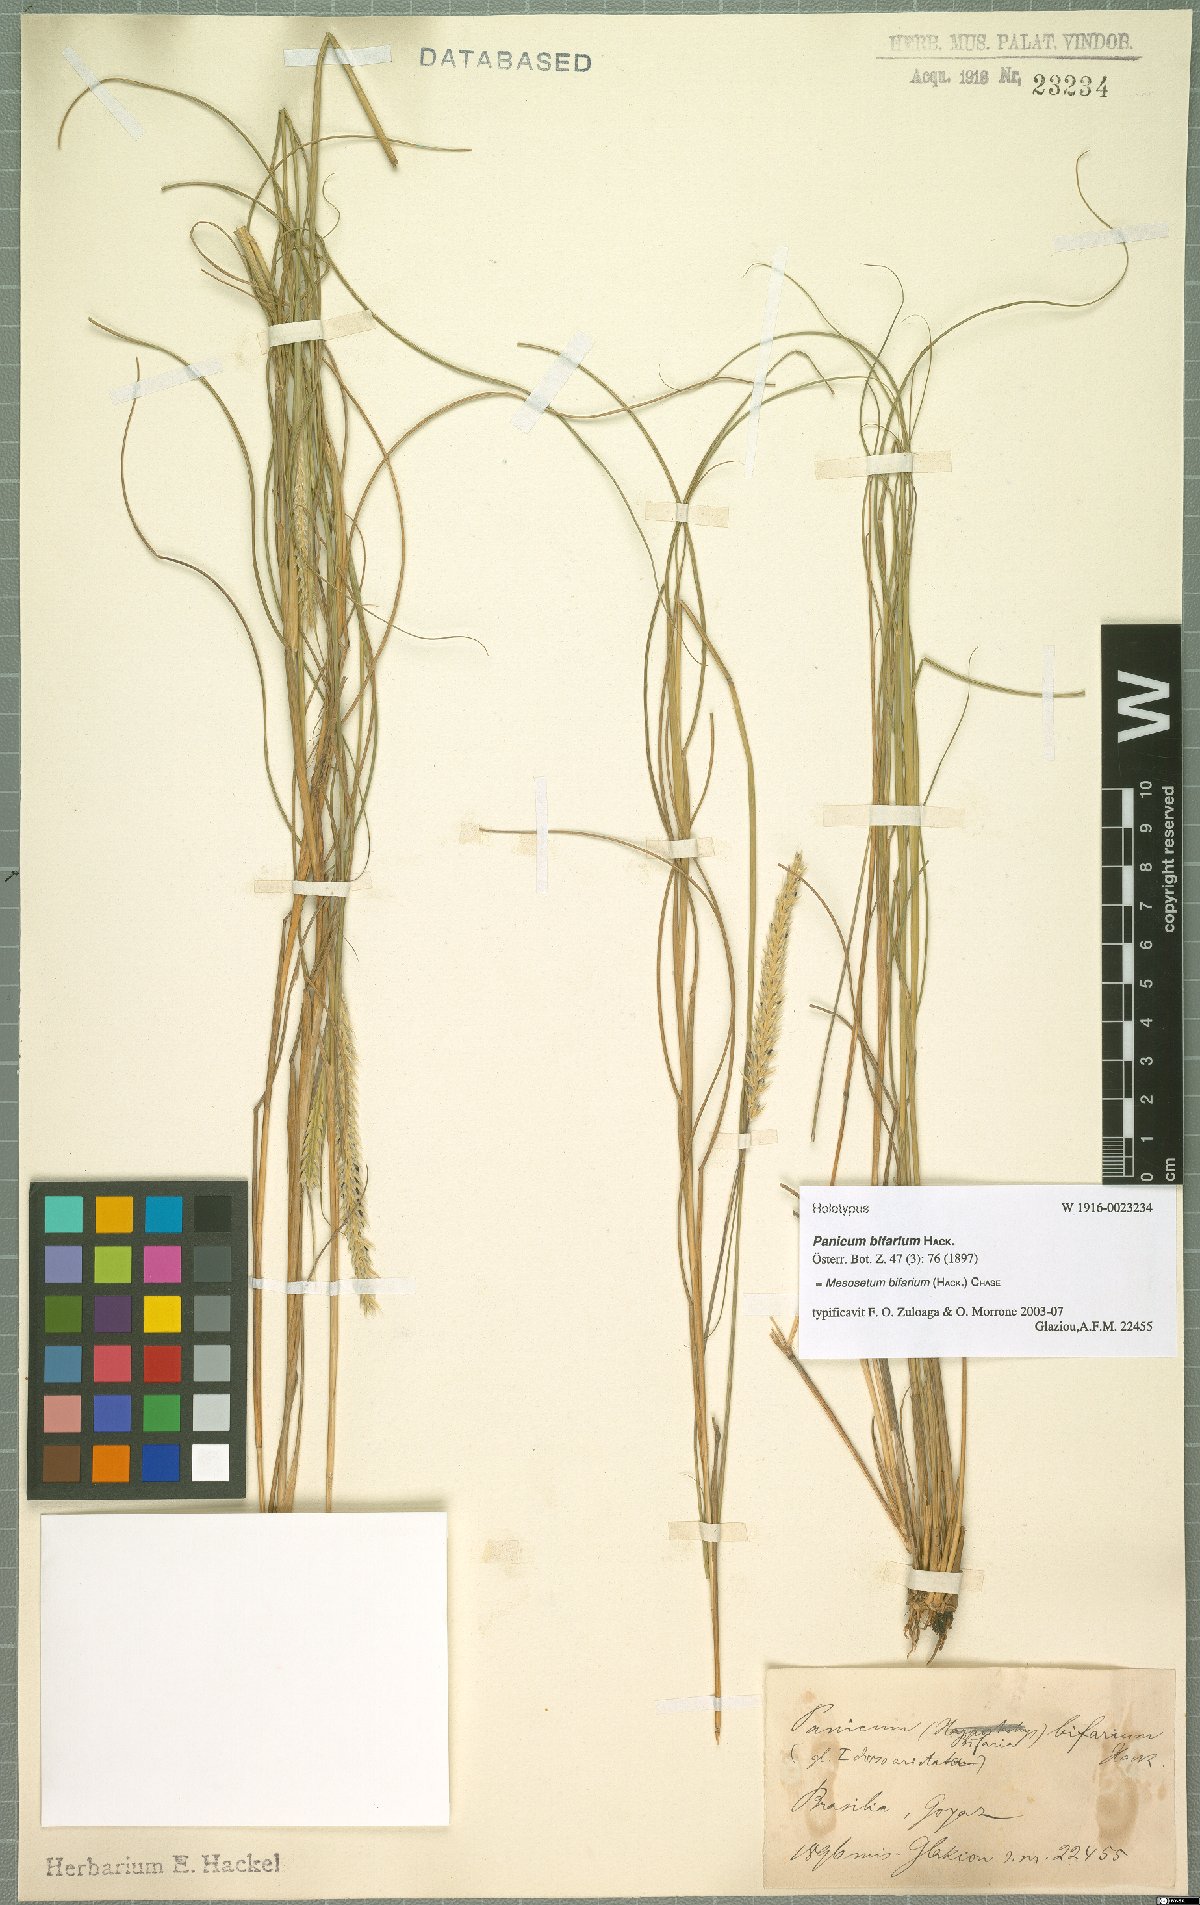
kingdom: Plantae
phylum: Tracheophyta
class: Liliopsida
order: Poales
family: Poaceae
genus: Mesosetum
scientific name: Mesosetum bifarium
